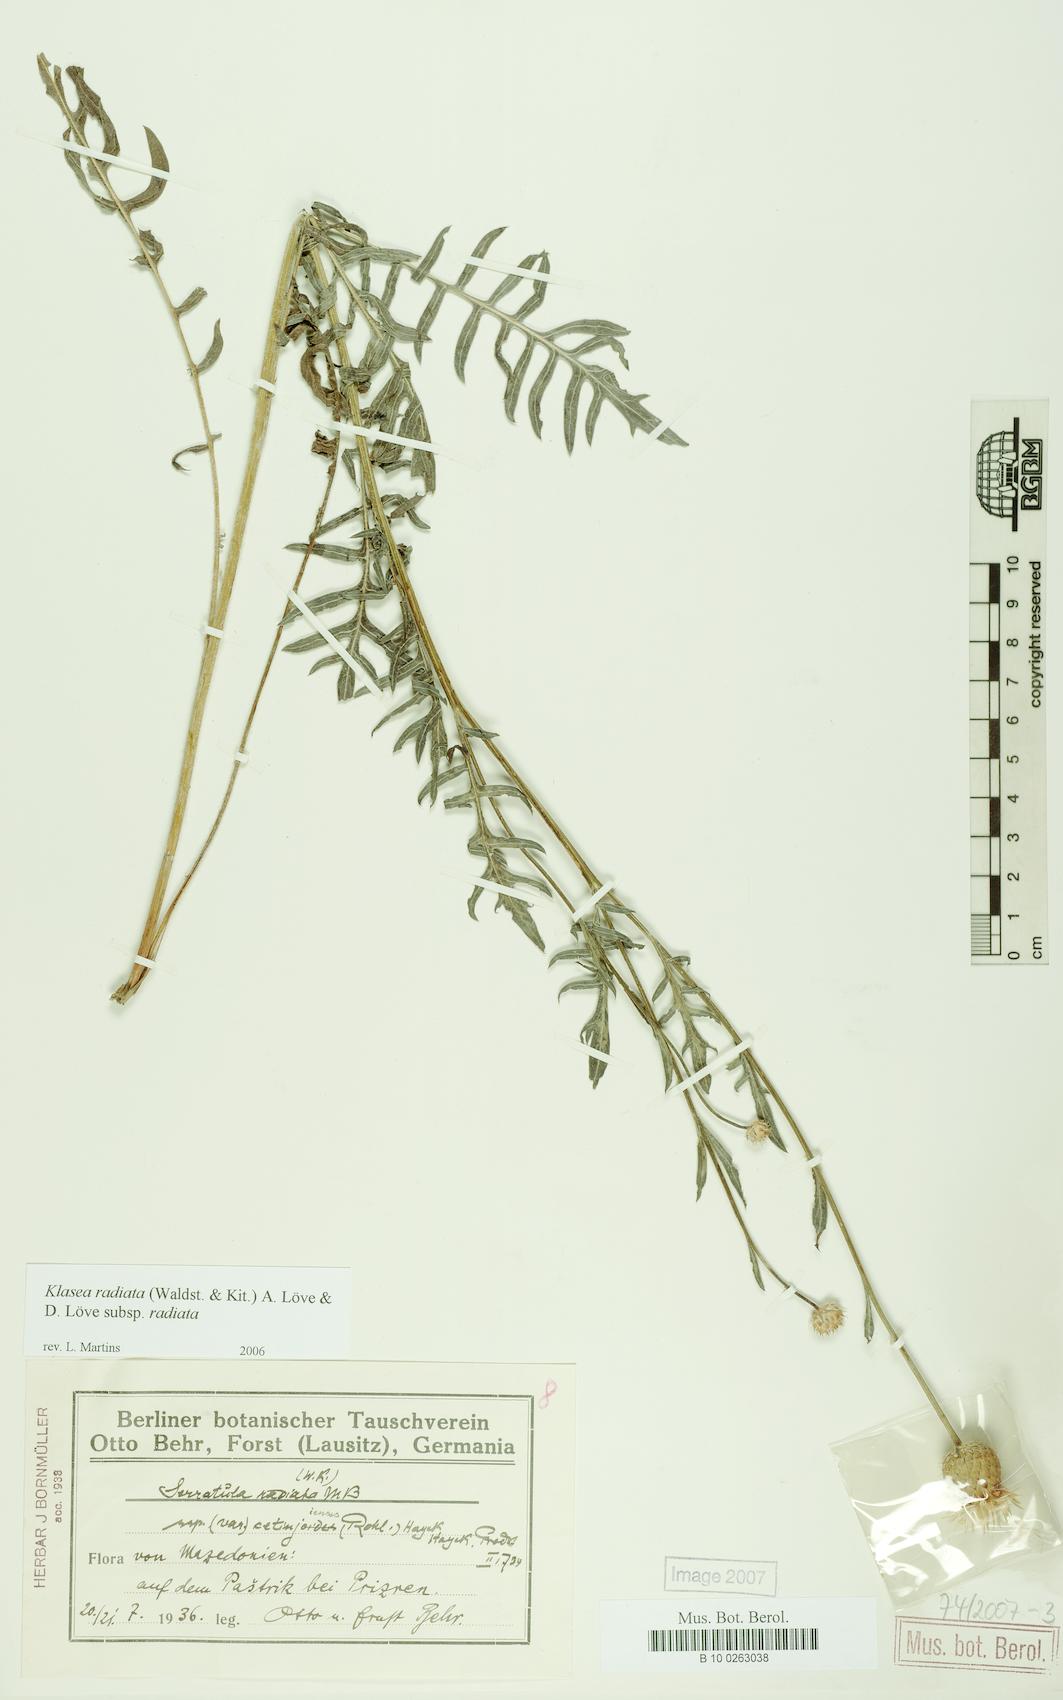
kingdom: Plantae
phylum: Tracheophyta
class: Magnoliopsida
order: Asterales
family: Asteraceae
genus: Klasea
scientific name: Klasea radiata
